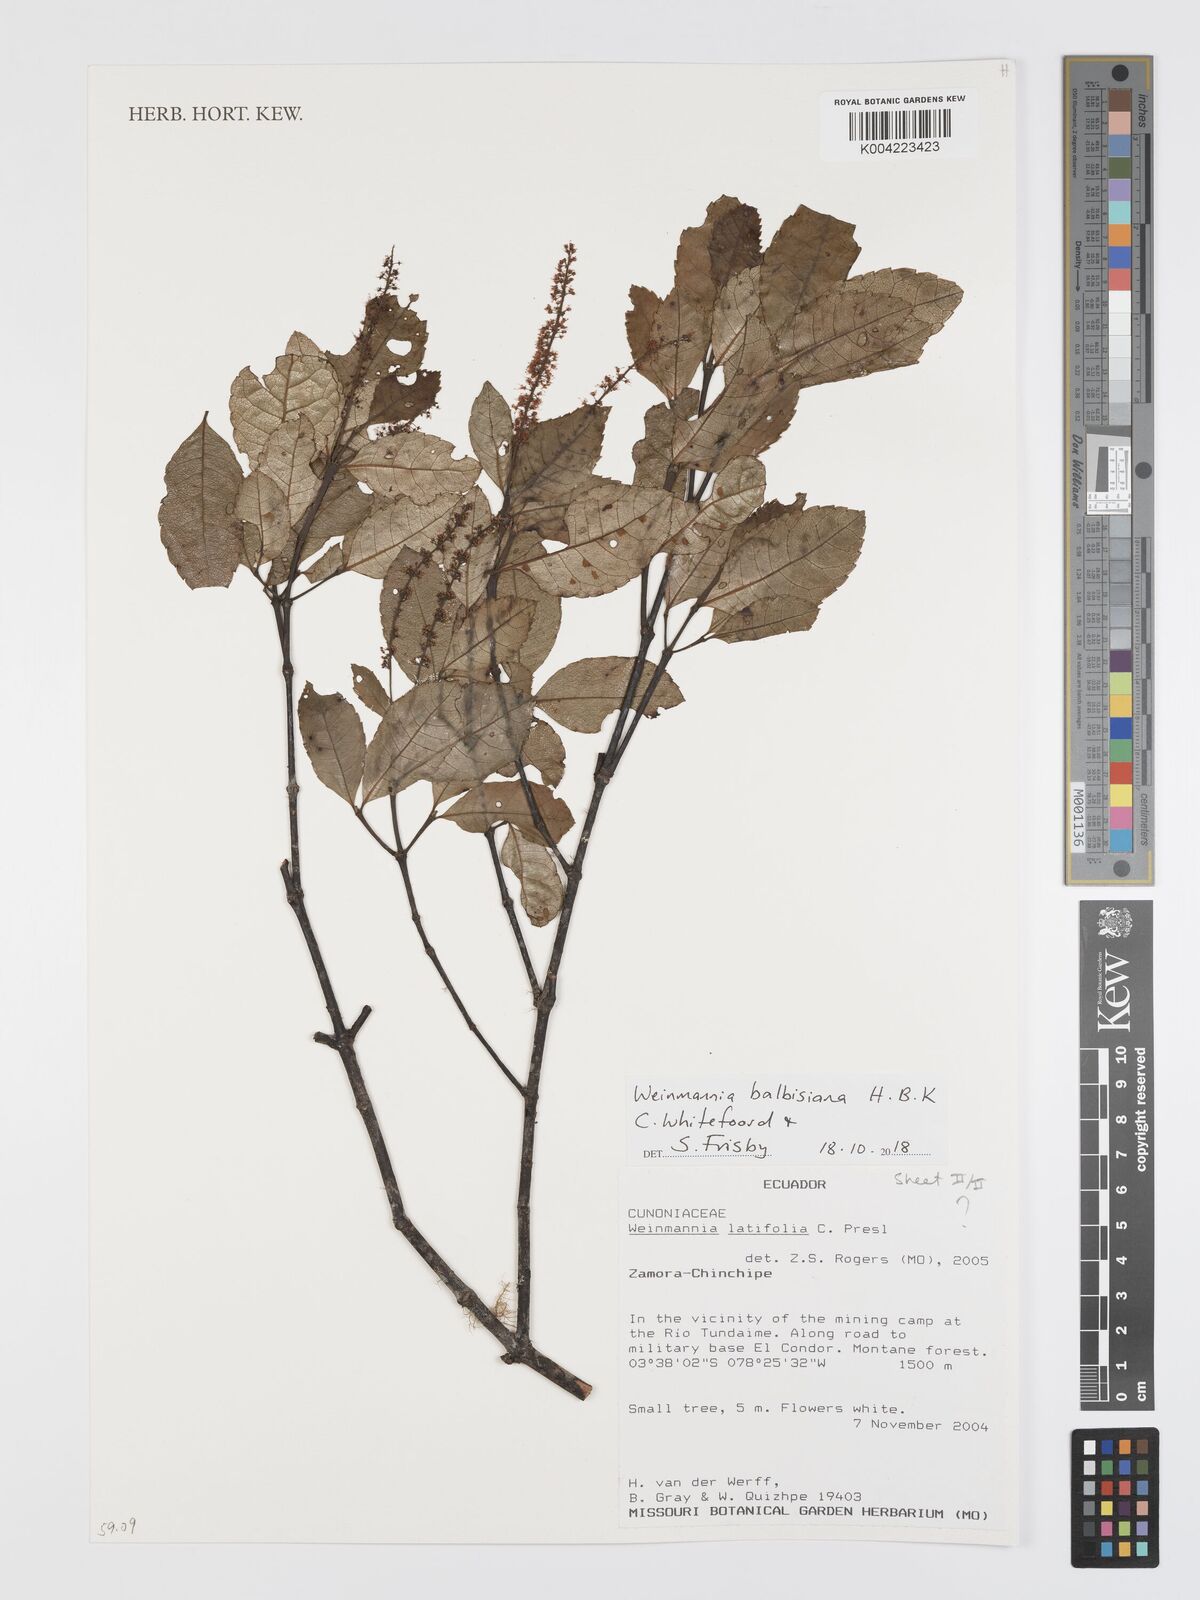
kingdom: Plantae
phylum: Tracheophyta
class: Magnoliopsida
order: Oxalidales
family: Cunoniaceae
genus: Weinmannia
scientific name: Weinmannia balbisana
